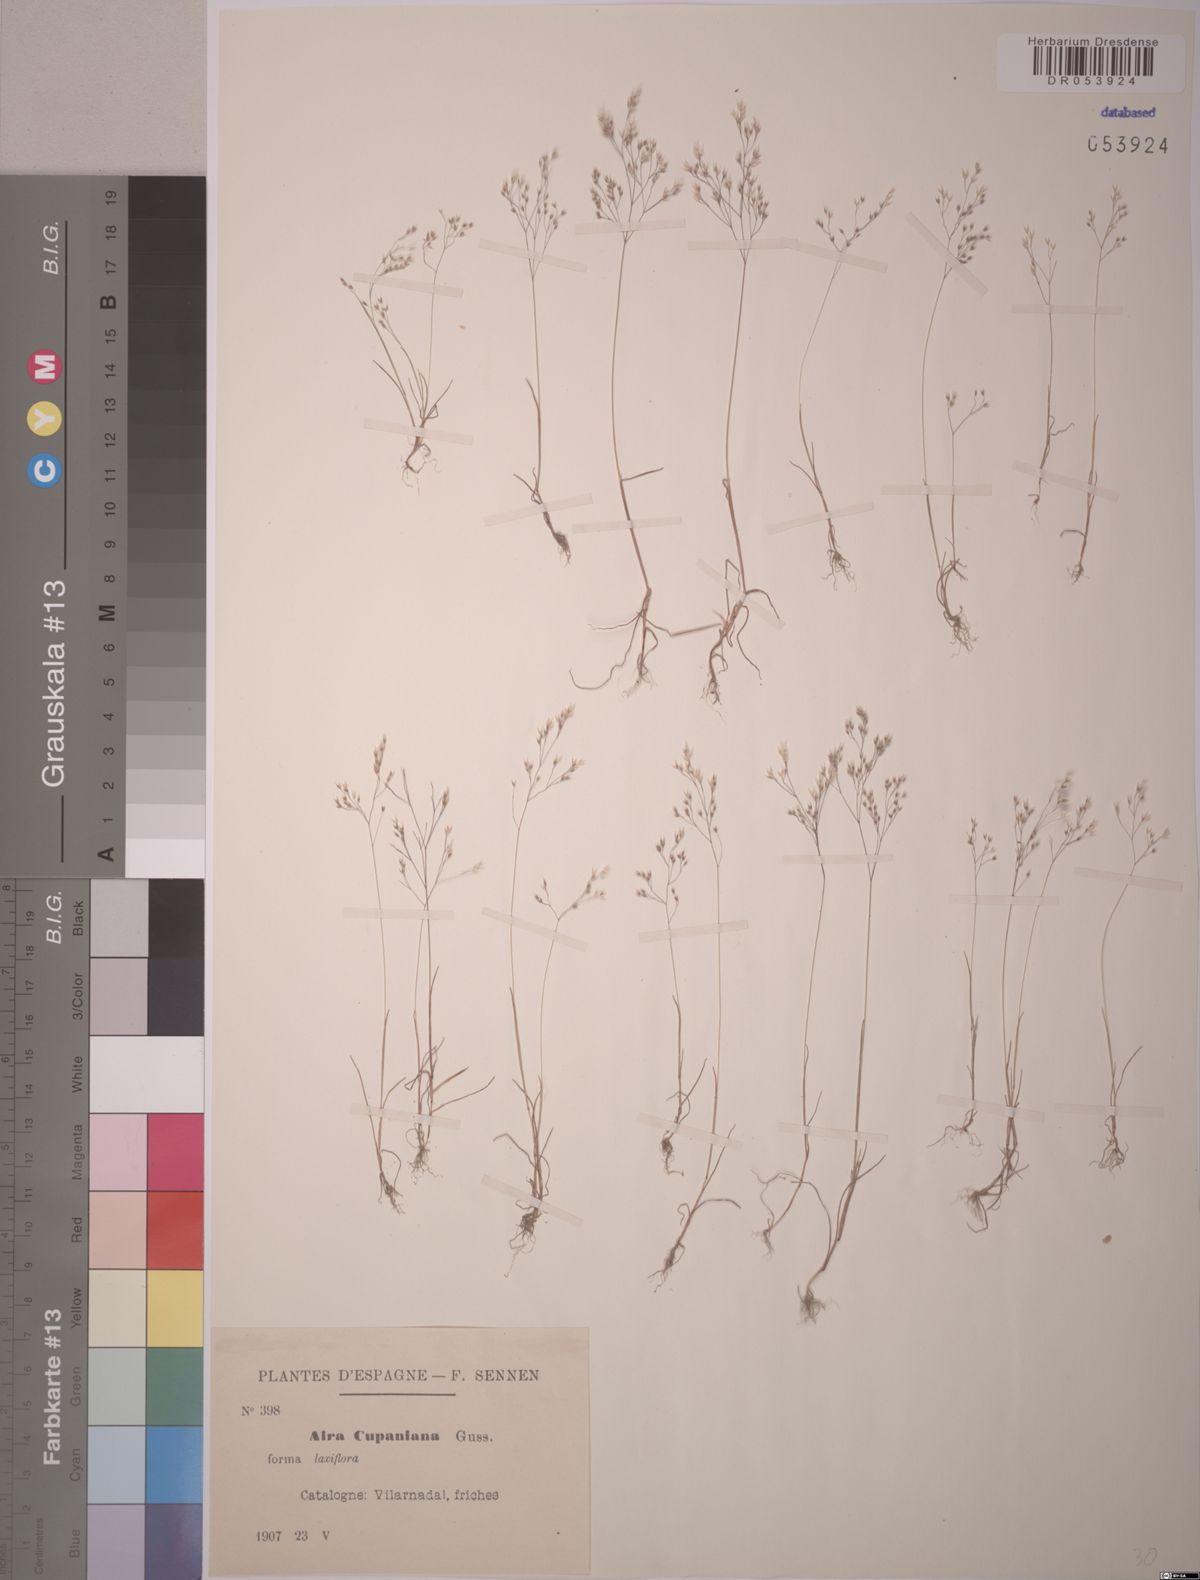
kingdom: Plantae
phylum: Tracheophyta
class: Liliopsida
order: Poales
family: Poaceae
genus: Aira
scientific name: Aira cupaniana
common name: Silver hairgrass
